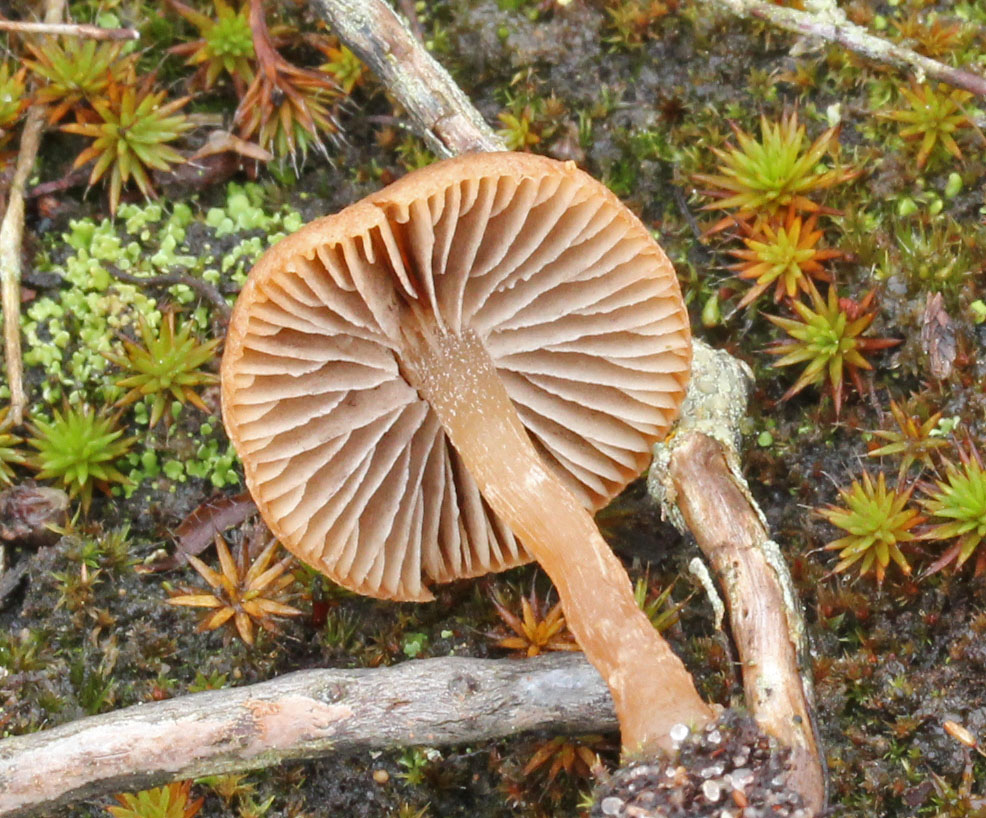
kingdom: Fungi
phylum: Basidiomycota
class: Agaricomycetes
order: Agaricales
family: Psathyrellaceae
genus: Psathyrella
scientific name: Psathyrella flexispora
